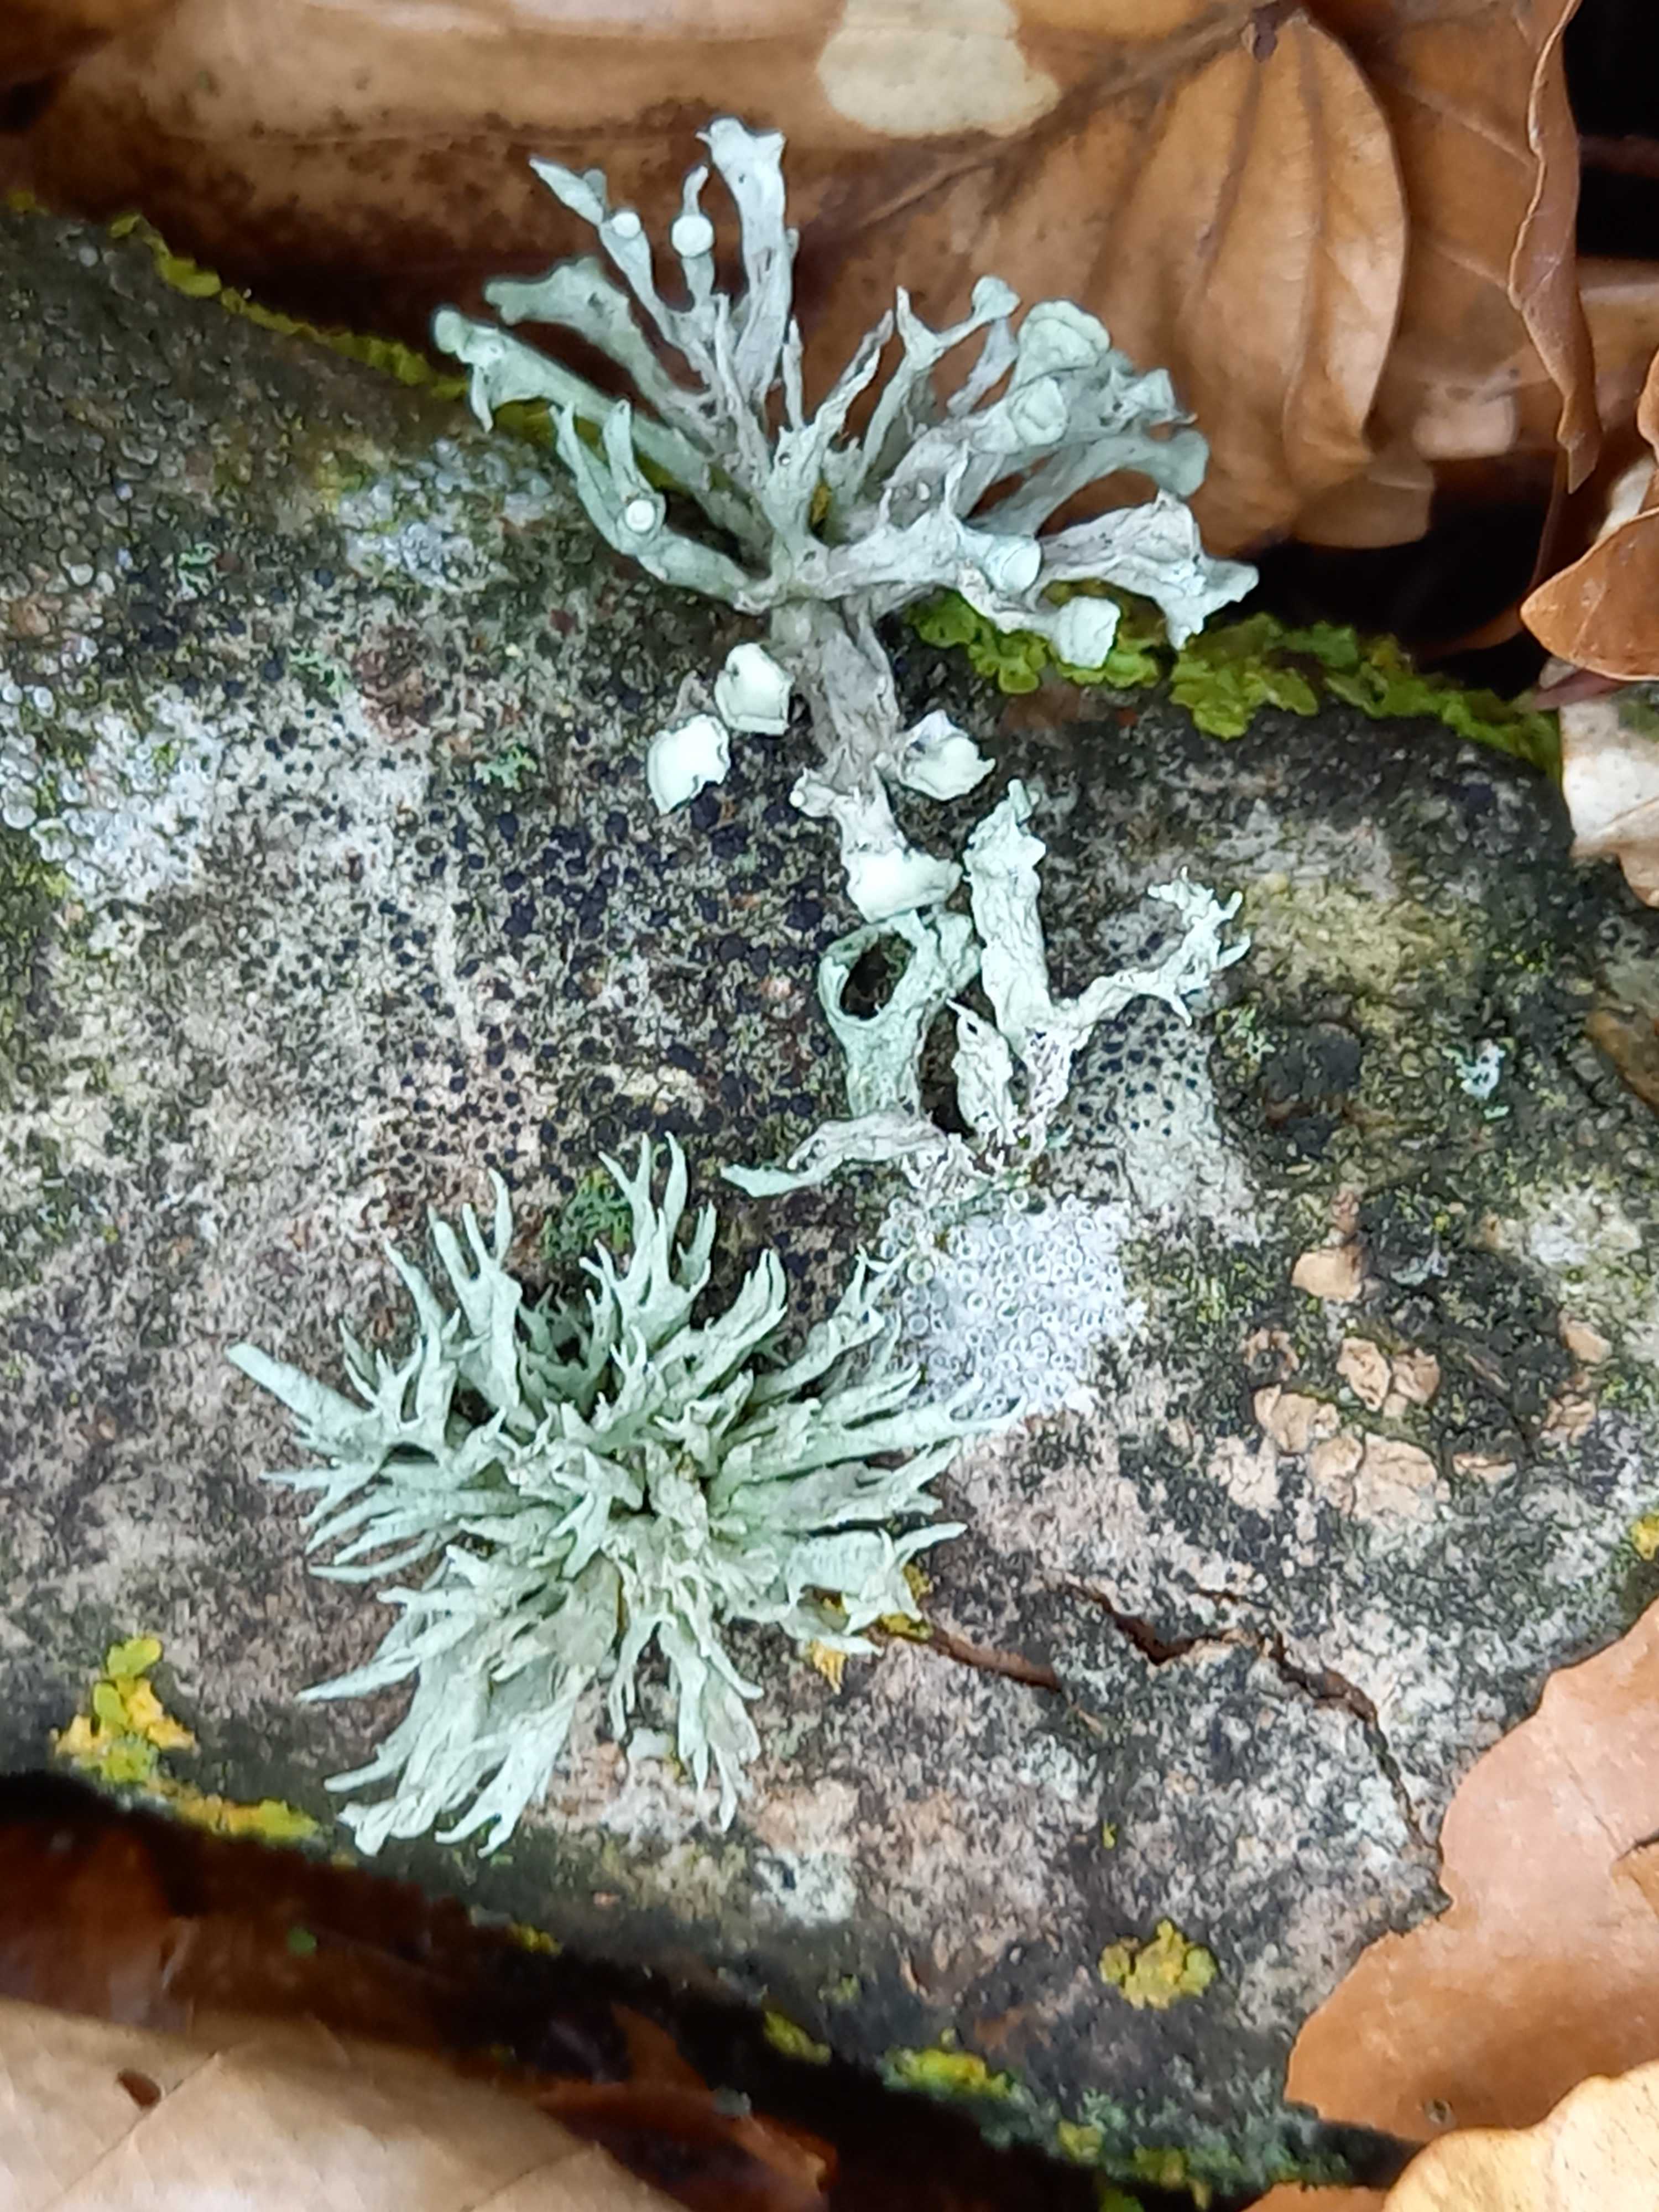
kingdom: Fungi
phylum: Ascomycota
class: Lecanoromycetes
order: Lecanorales
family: Ramalinaceae
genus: Ramalina
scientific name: Ramalina fastigiata
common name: tue-grenlav
